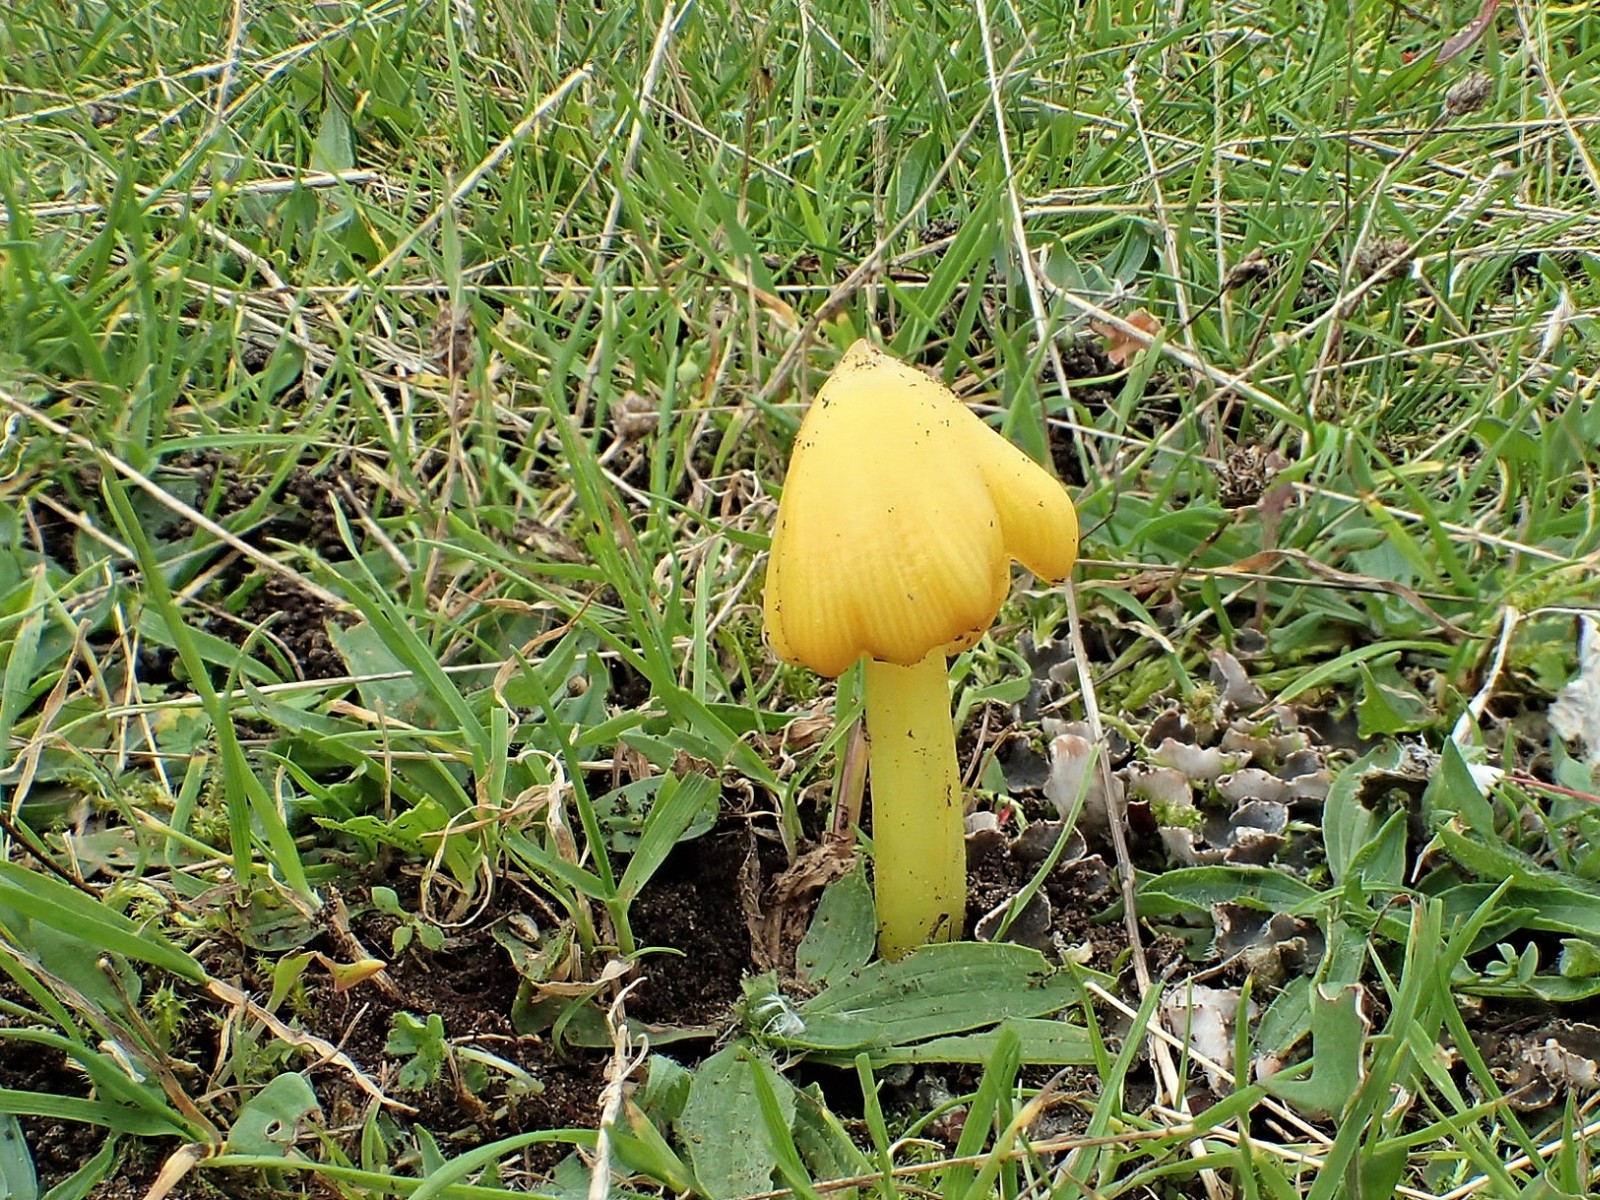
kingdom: Fungi
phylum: Basidiomycota
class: Agaricomycetes
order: Agaricales
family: Hygrophoraceae
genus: Hygrocybe
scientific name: Hygrocybe acutoconica
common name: spidspuklet vokshat
